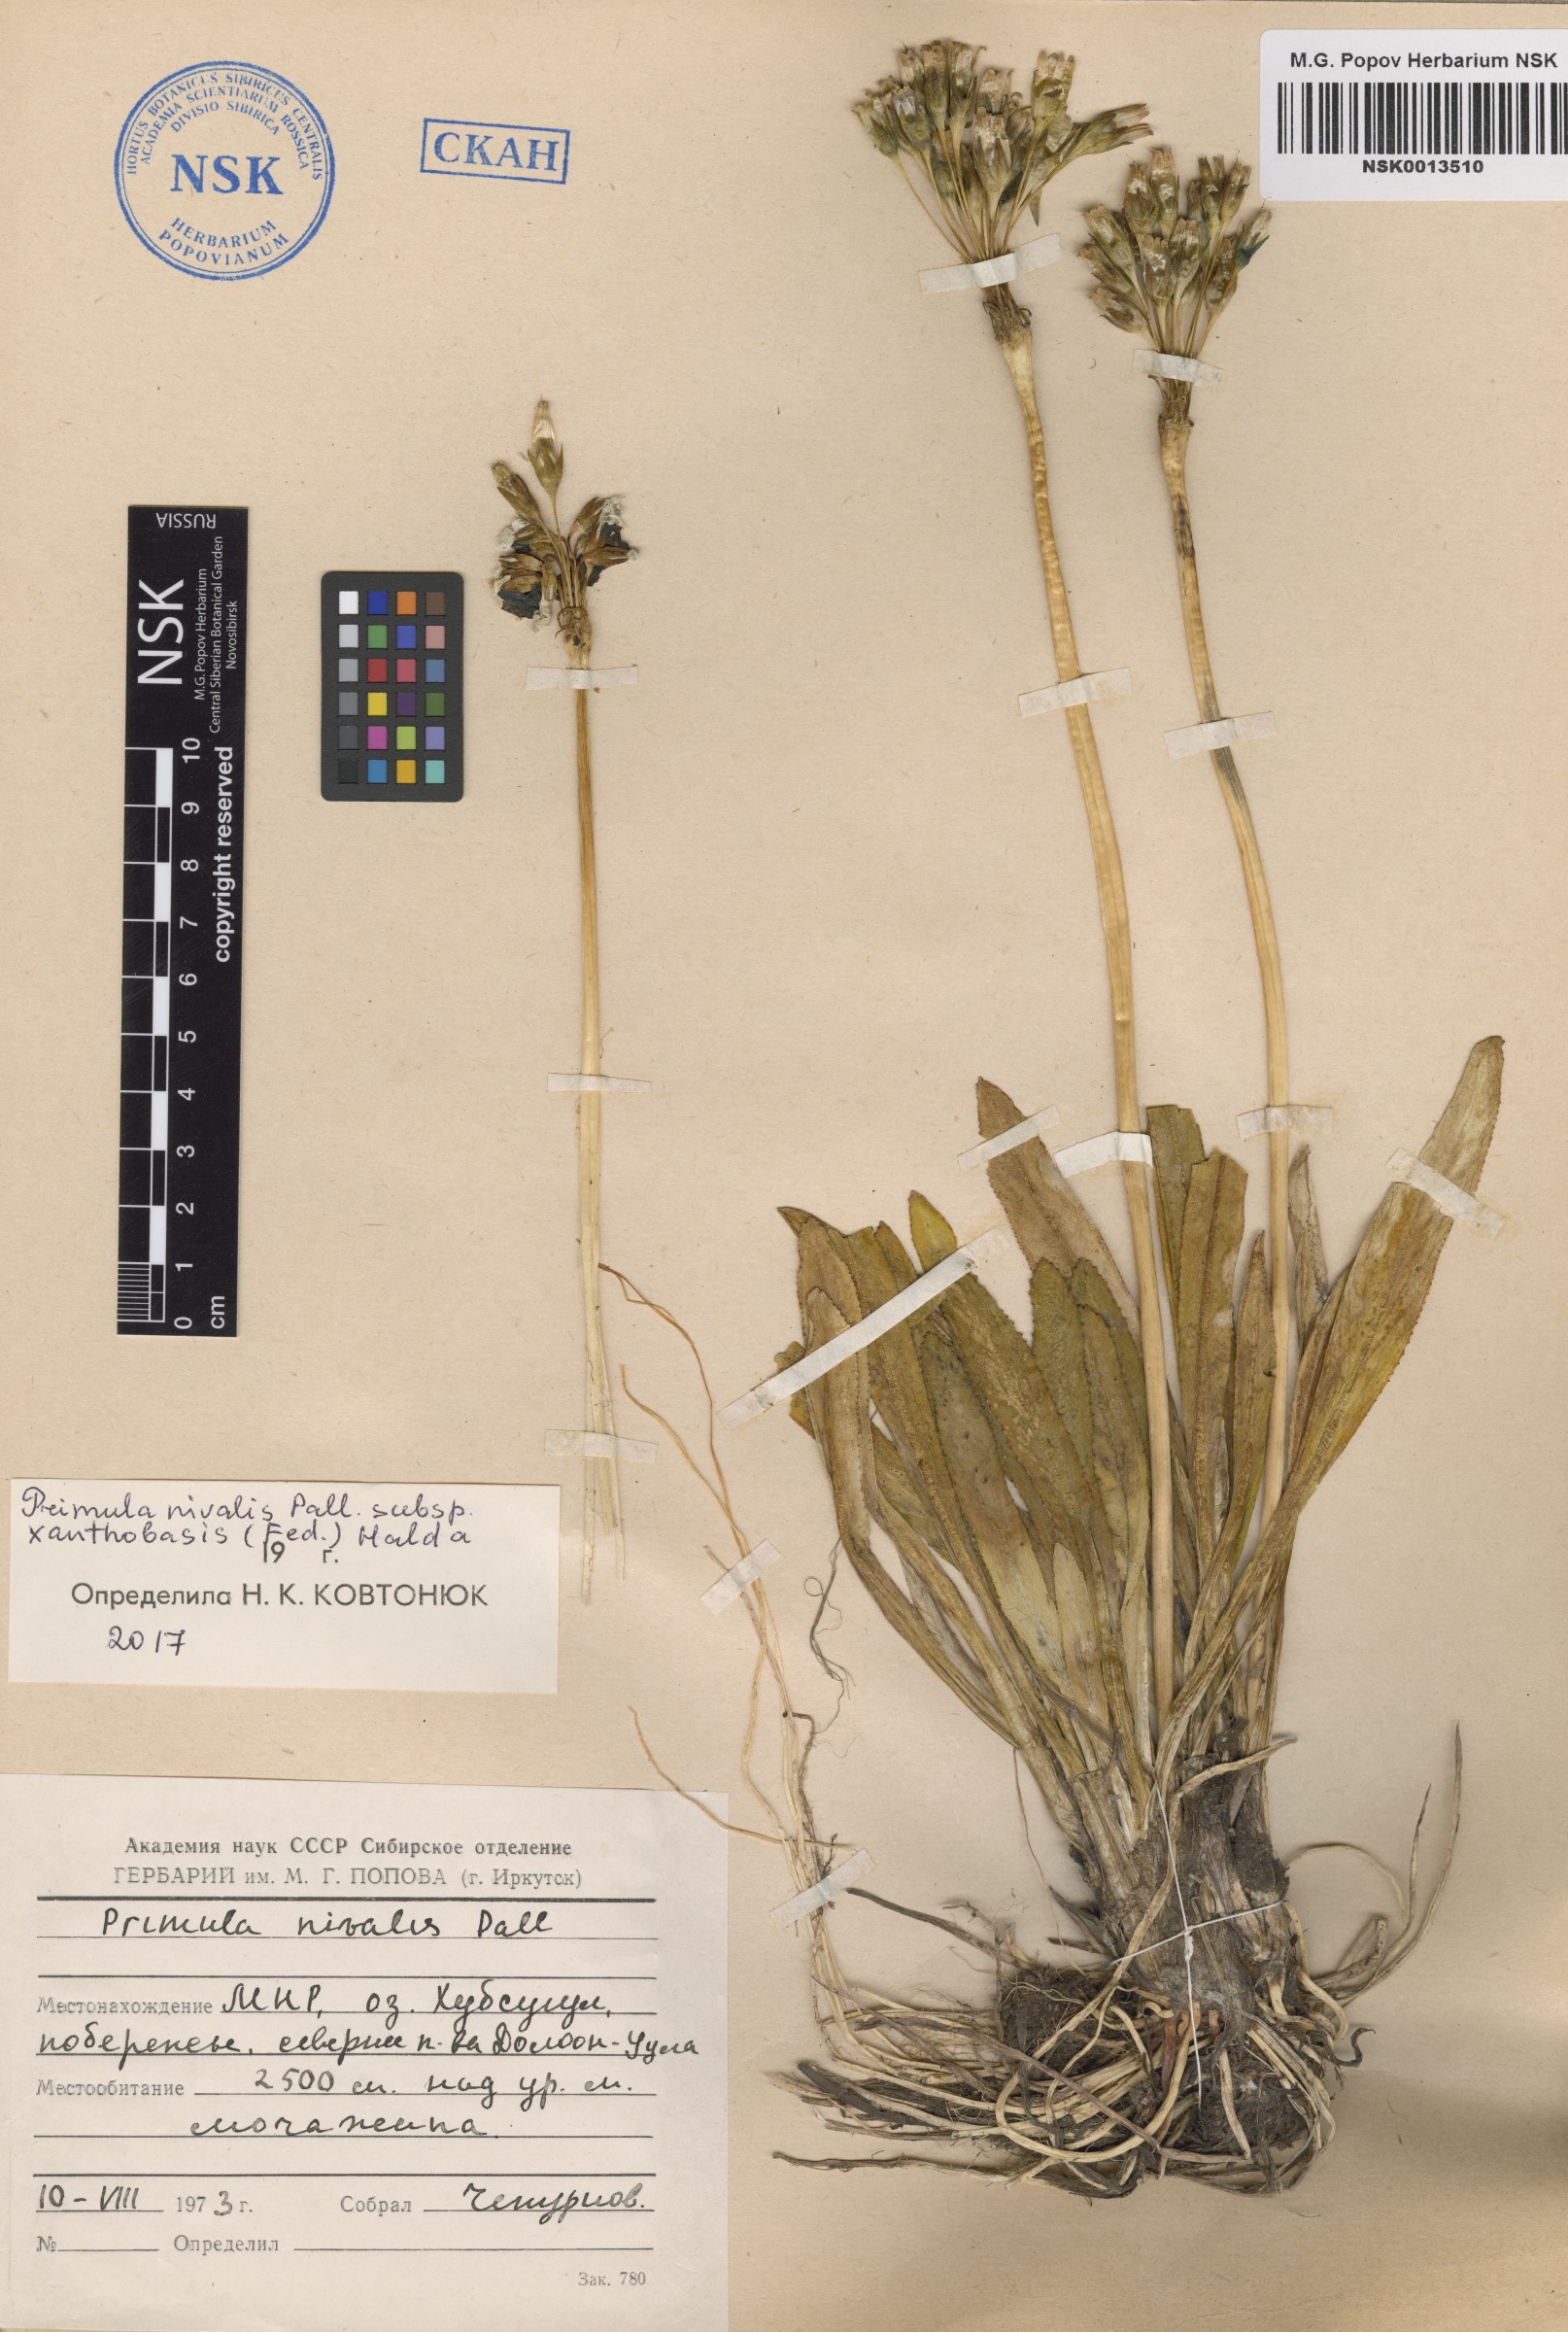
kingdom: Plantae
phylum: Tracheophyta
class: Magnoliopsida
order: Ericales
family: Primulaceae
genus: Primula
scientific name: Primula nivalis
